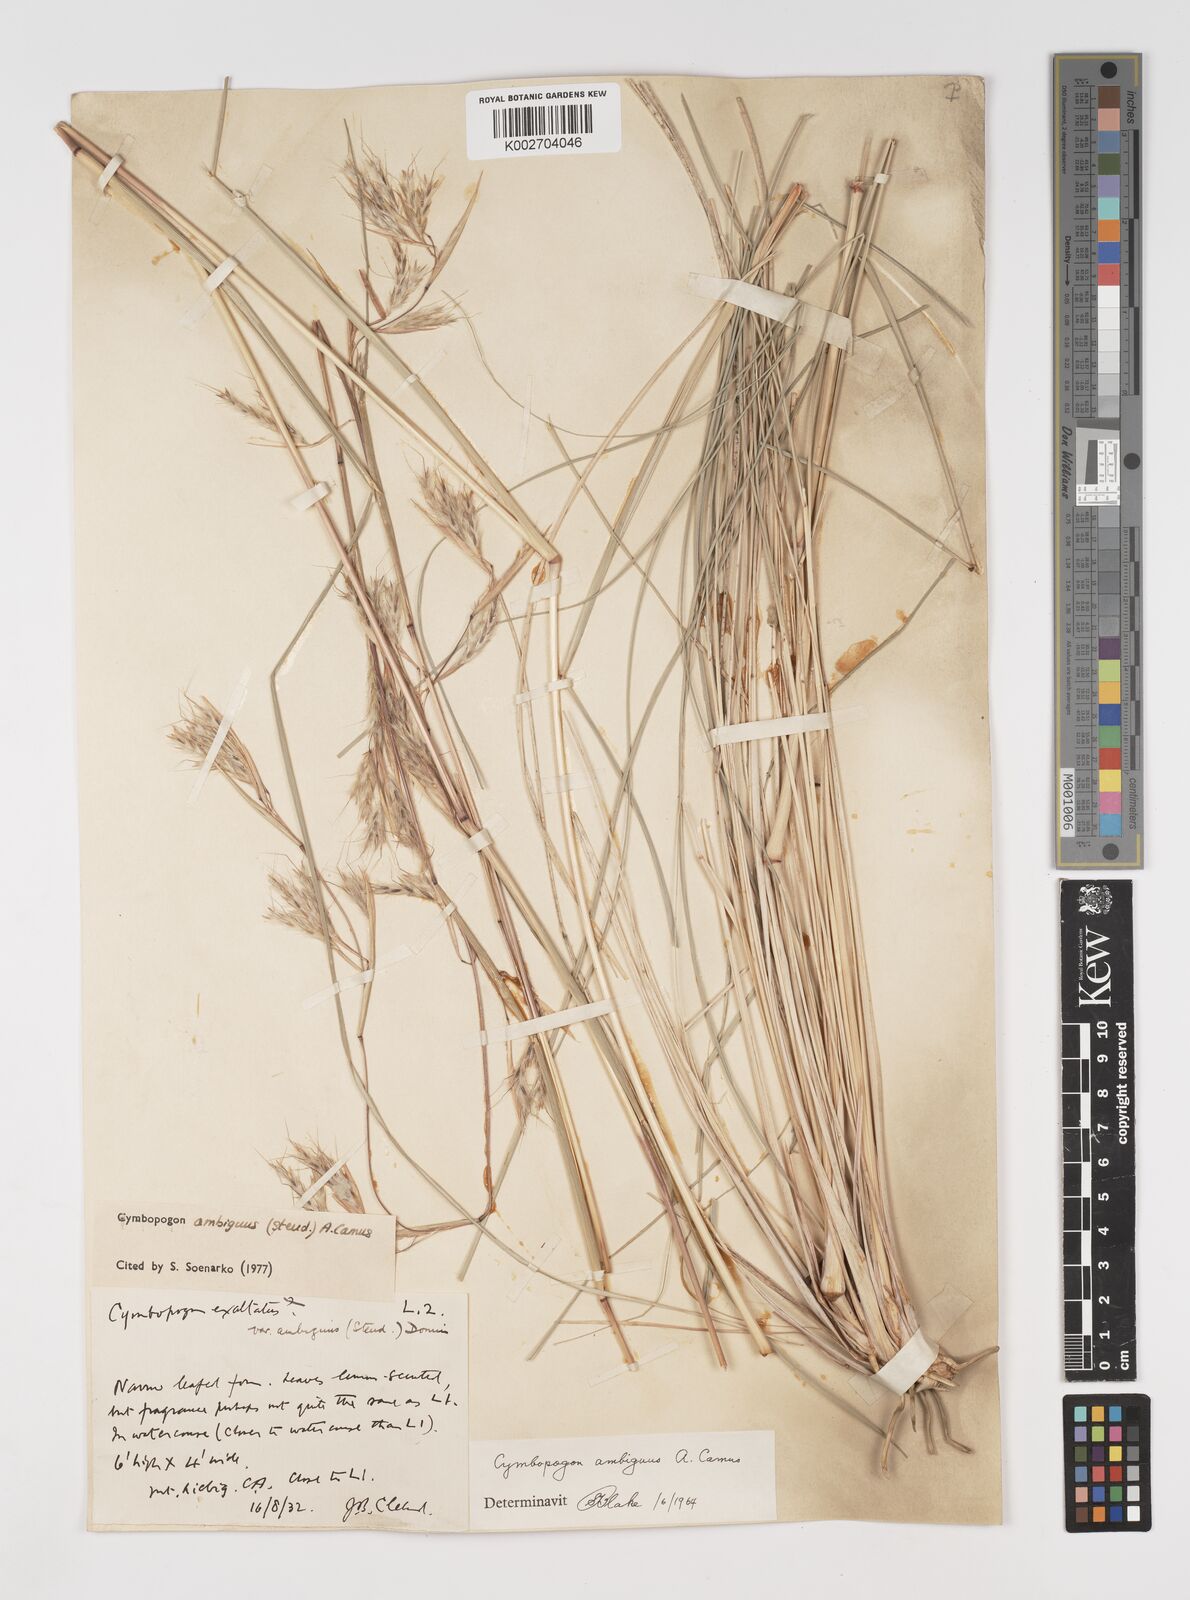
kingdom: Plantae
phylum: Tracheophyta
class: Liliopsida
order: Poales
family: Poaceae
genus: Cymbopogon
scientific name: Cymbopogon ambiguus
